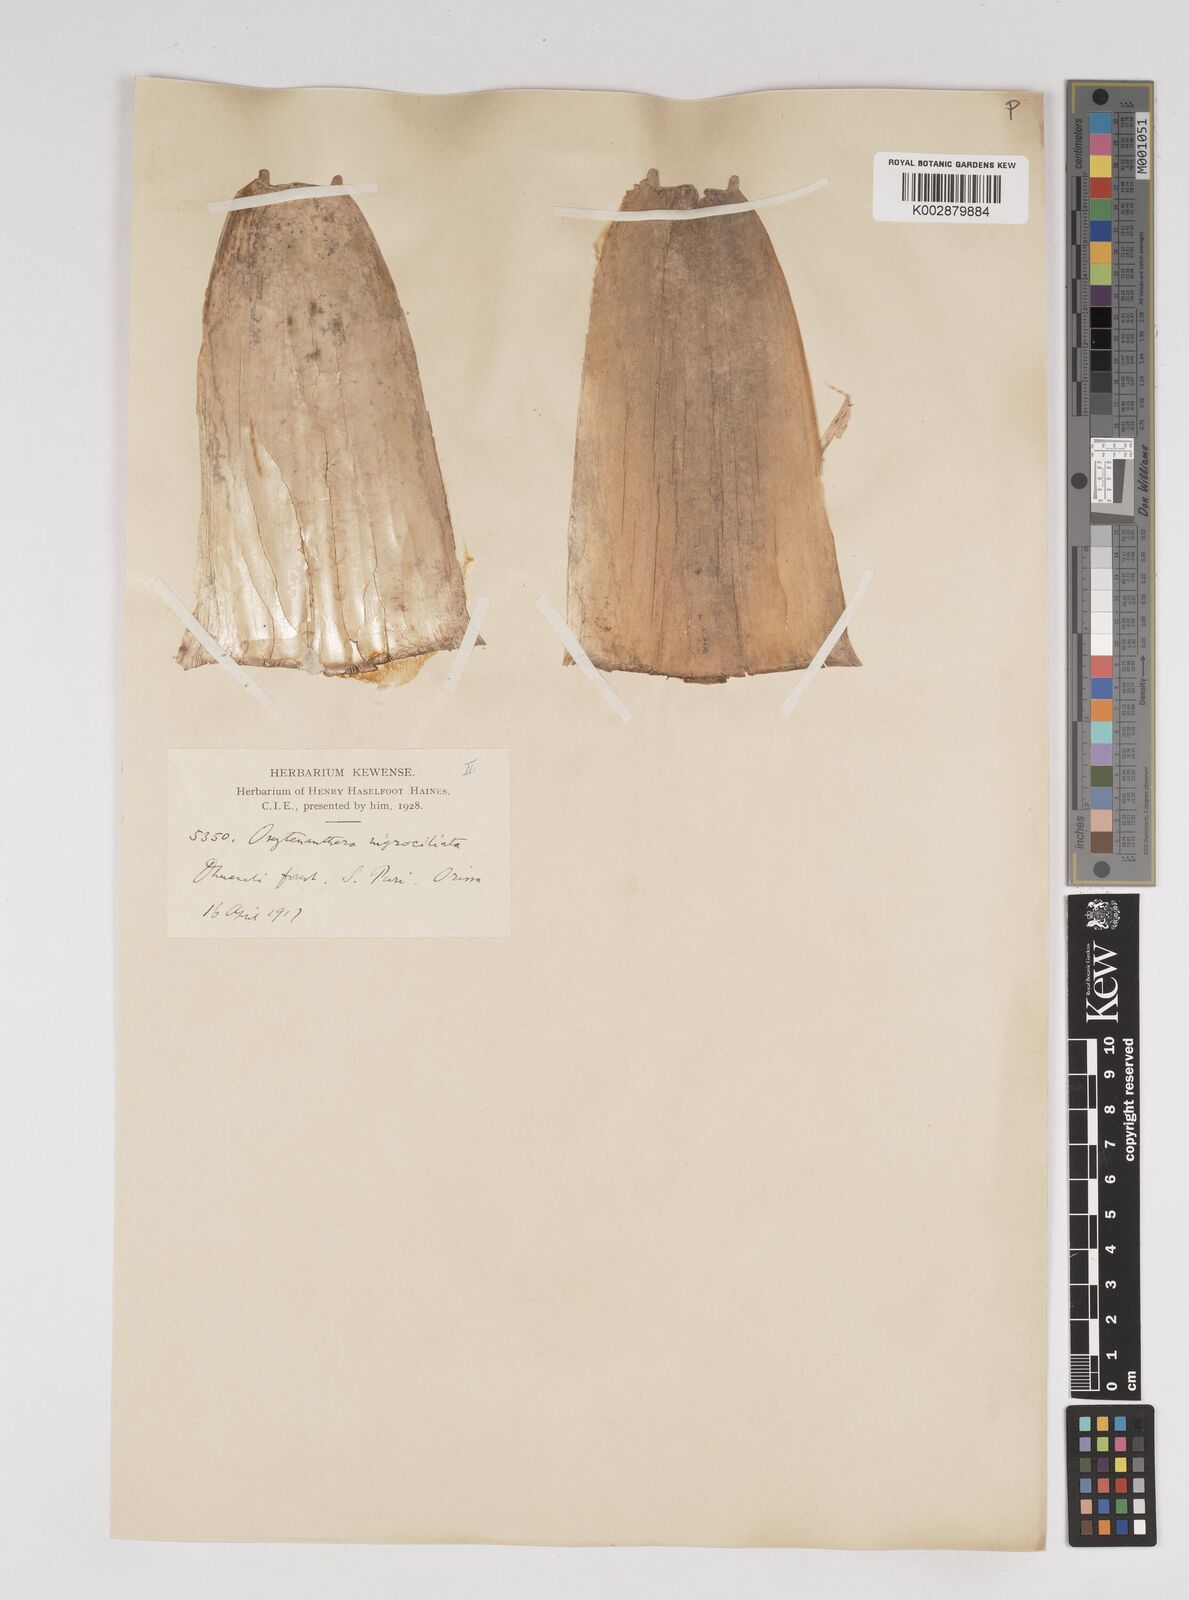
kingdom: Plantae
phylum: Tracheophyta
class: Liliopsida
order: Poales
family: Poaceae
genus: Gigantochloa
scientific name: Gigantochloa
